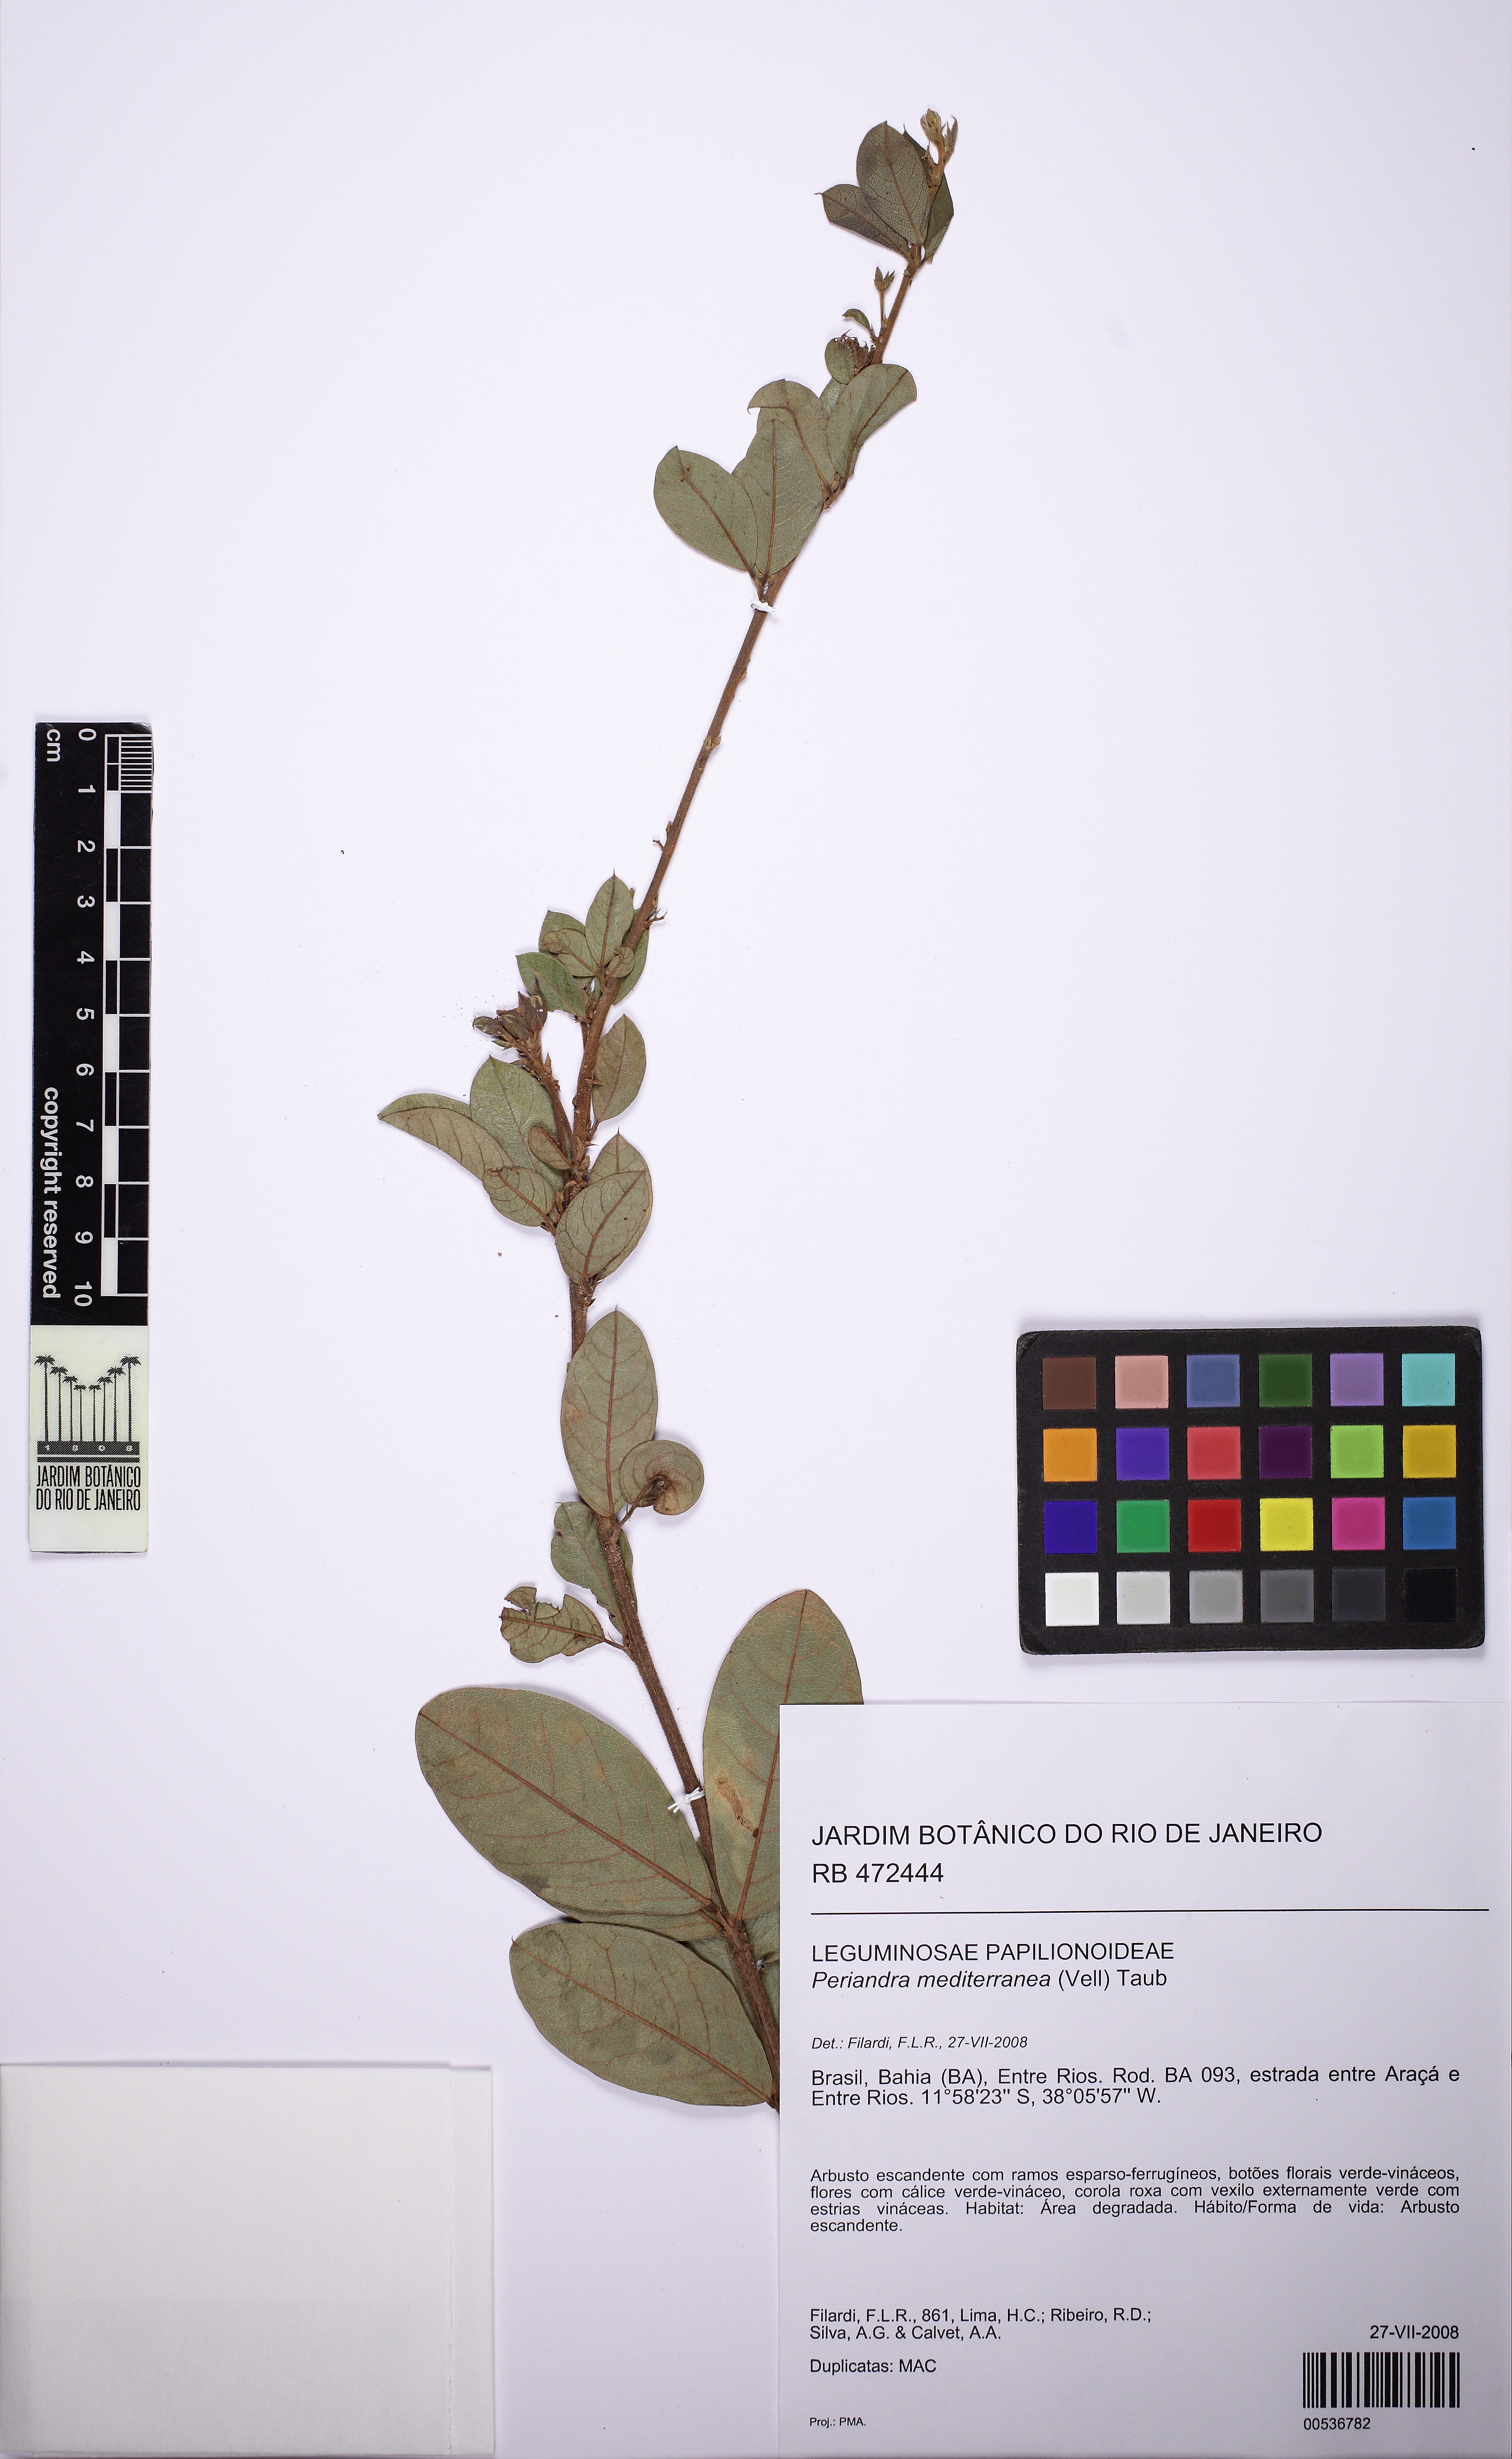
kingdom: Plantae
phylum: Tracheophyta
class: Magnoliopsida
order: Fabales
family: Fabaceae
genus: Periandra
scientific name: Periandra mediterranea
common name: Brazilian licorice
